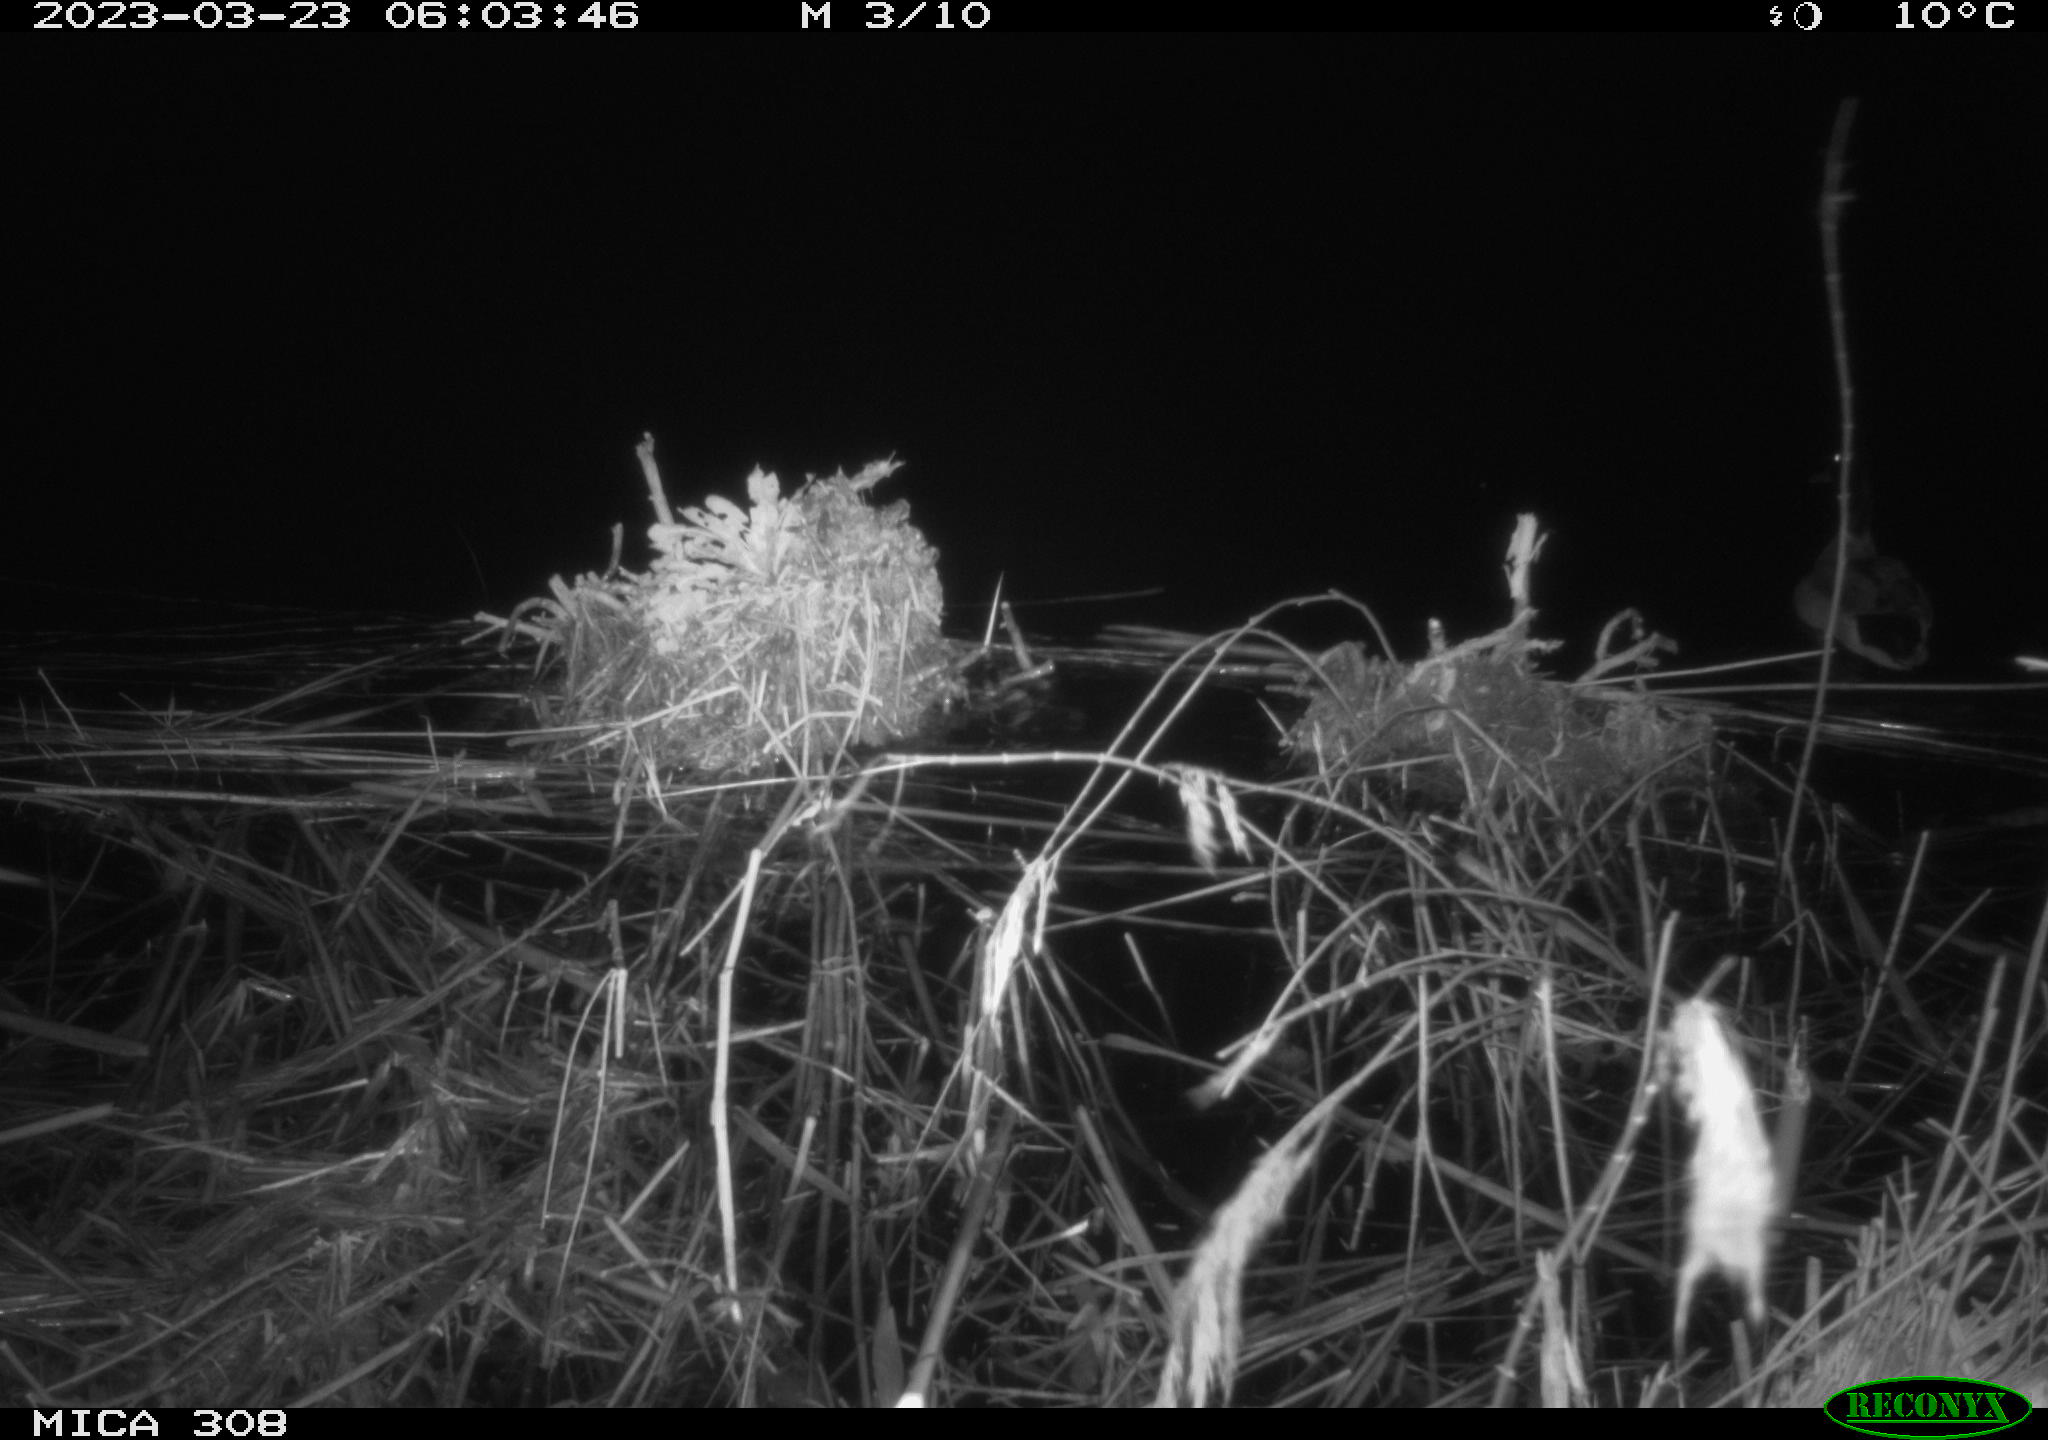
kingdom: Animalia
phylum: Chordata
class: Aves
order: Anseriformes
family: Anatidae
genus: Anas
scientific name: Anas
